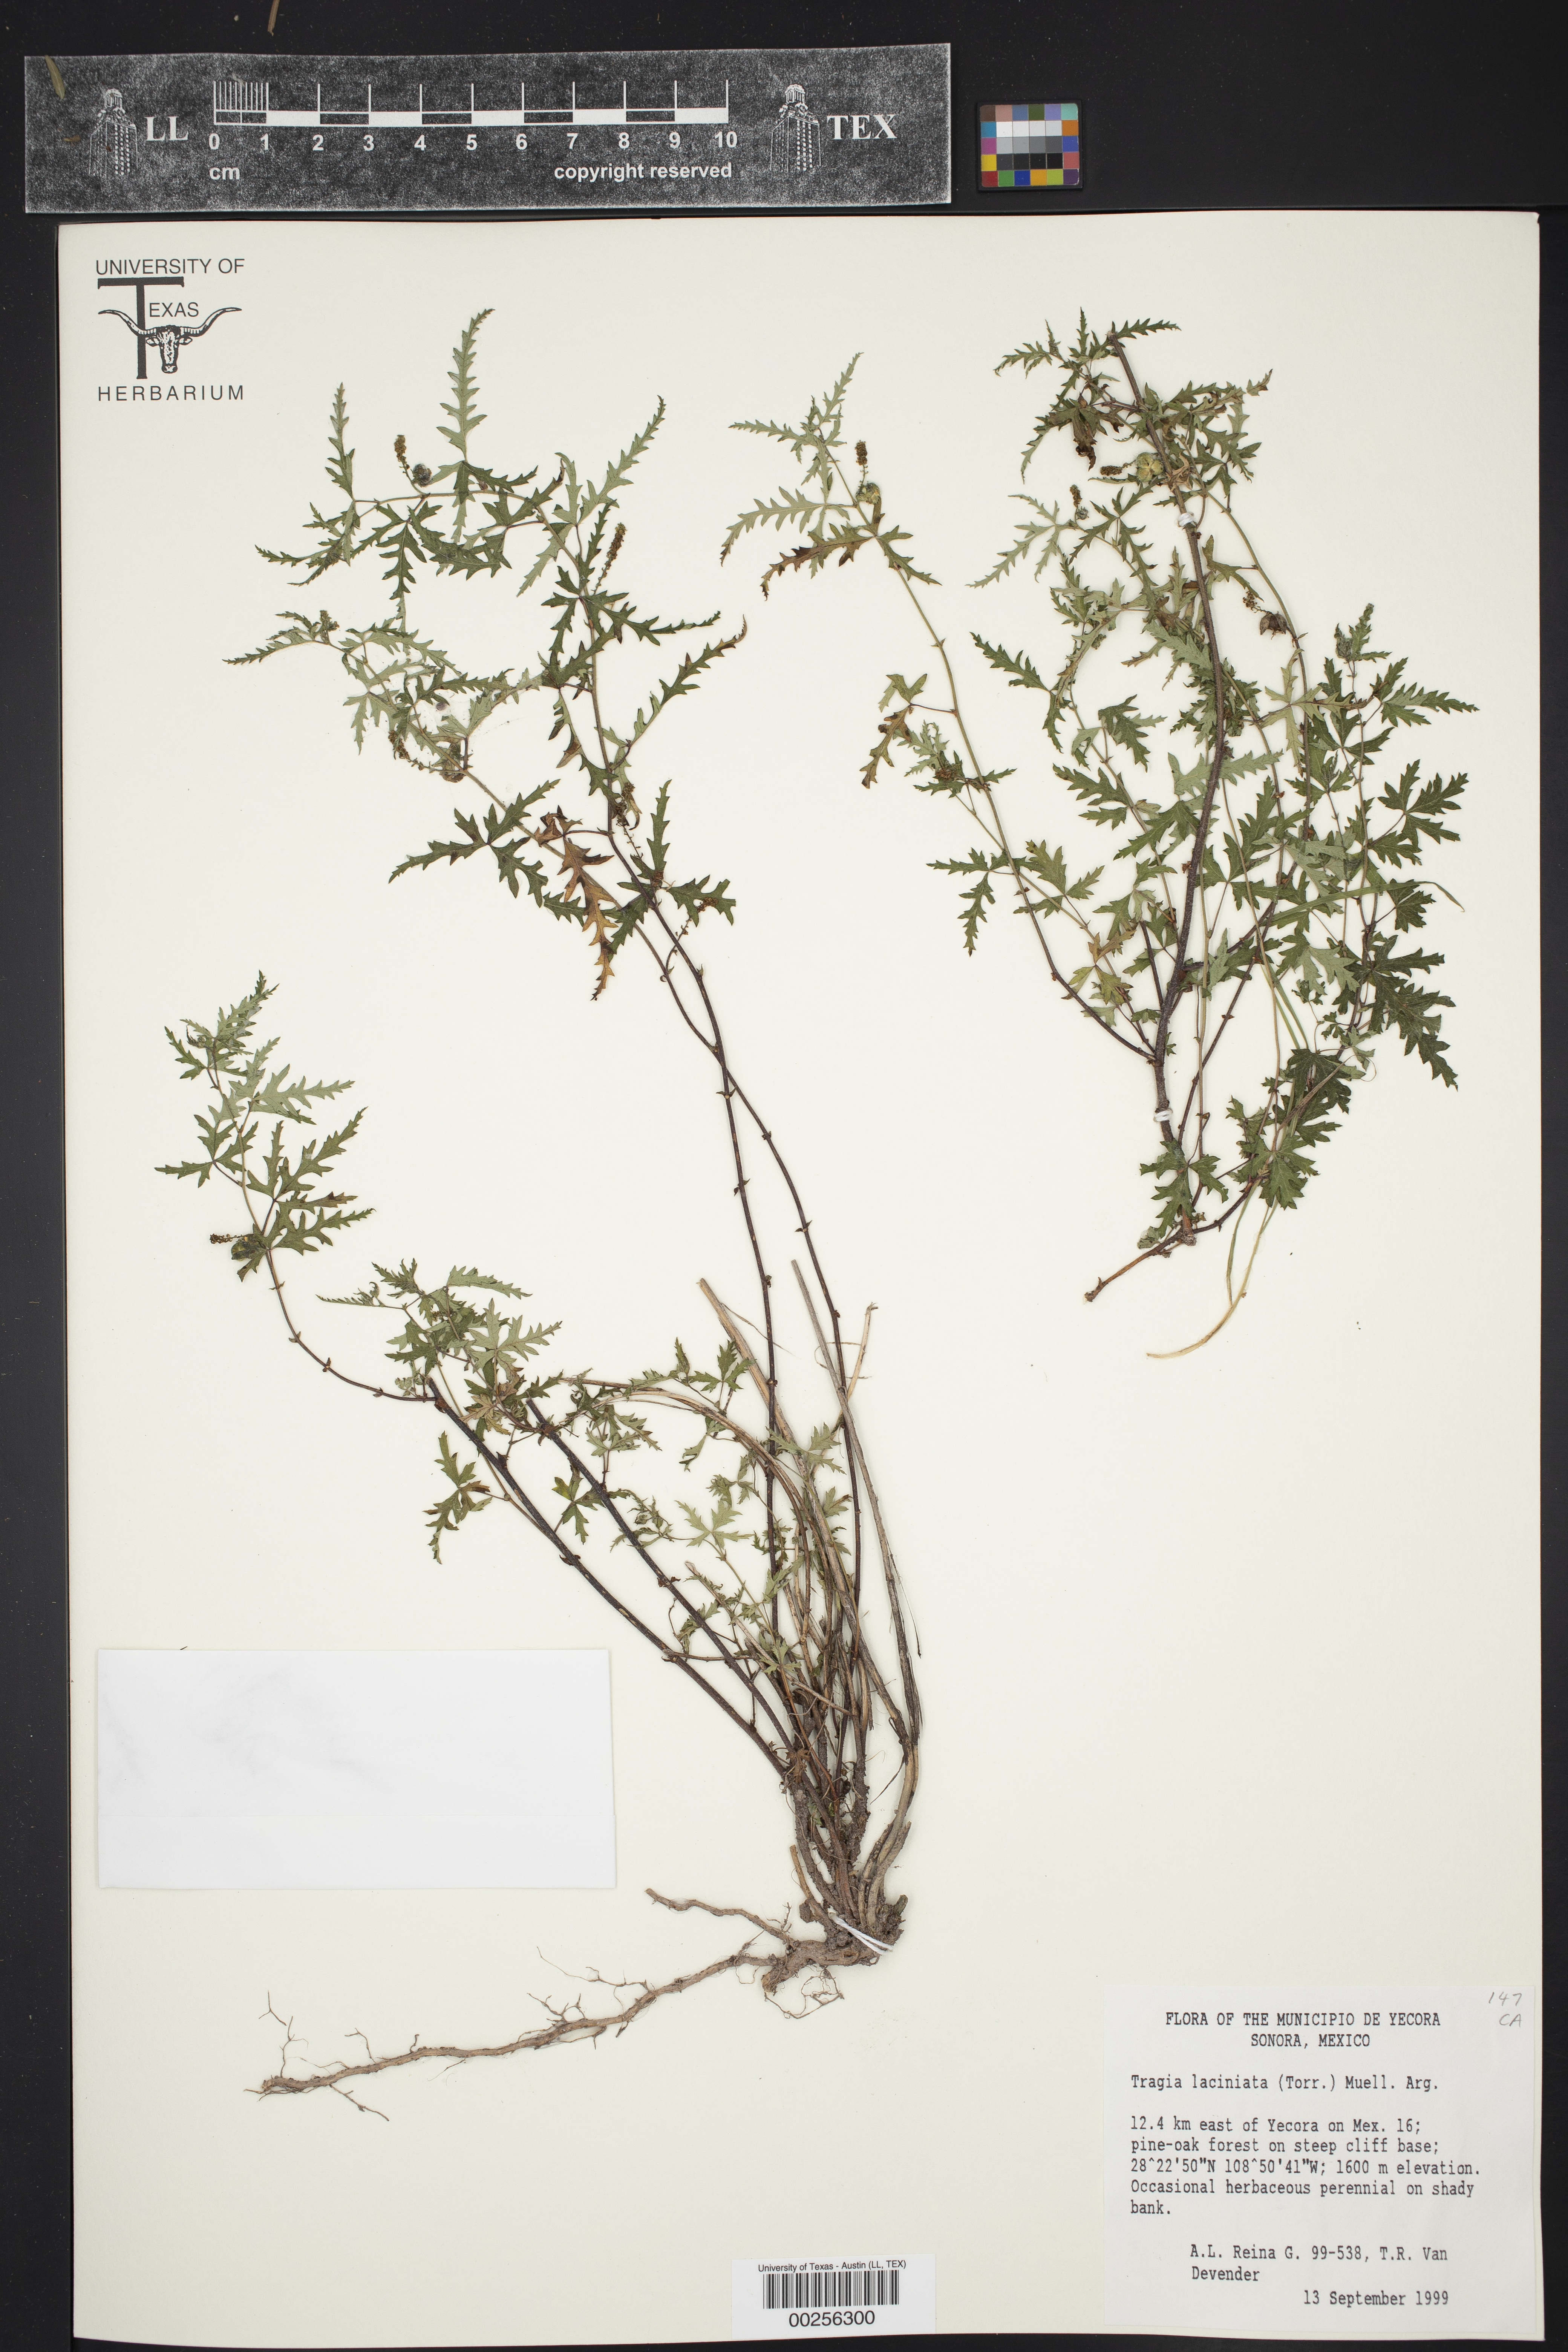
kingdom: Plantae
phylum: Tracheophyta
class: Magnoliopsida
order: Malpighiales
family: Euphorbiaceae
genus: Tragia
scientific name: Tragia laciniata
